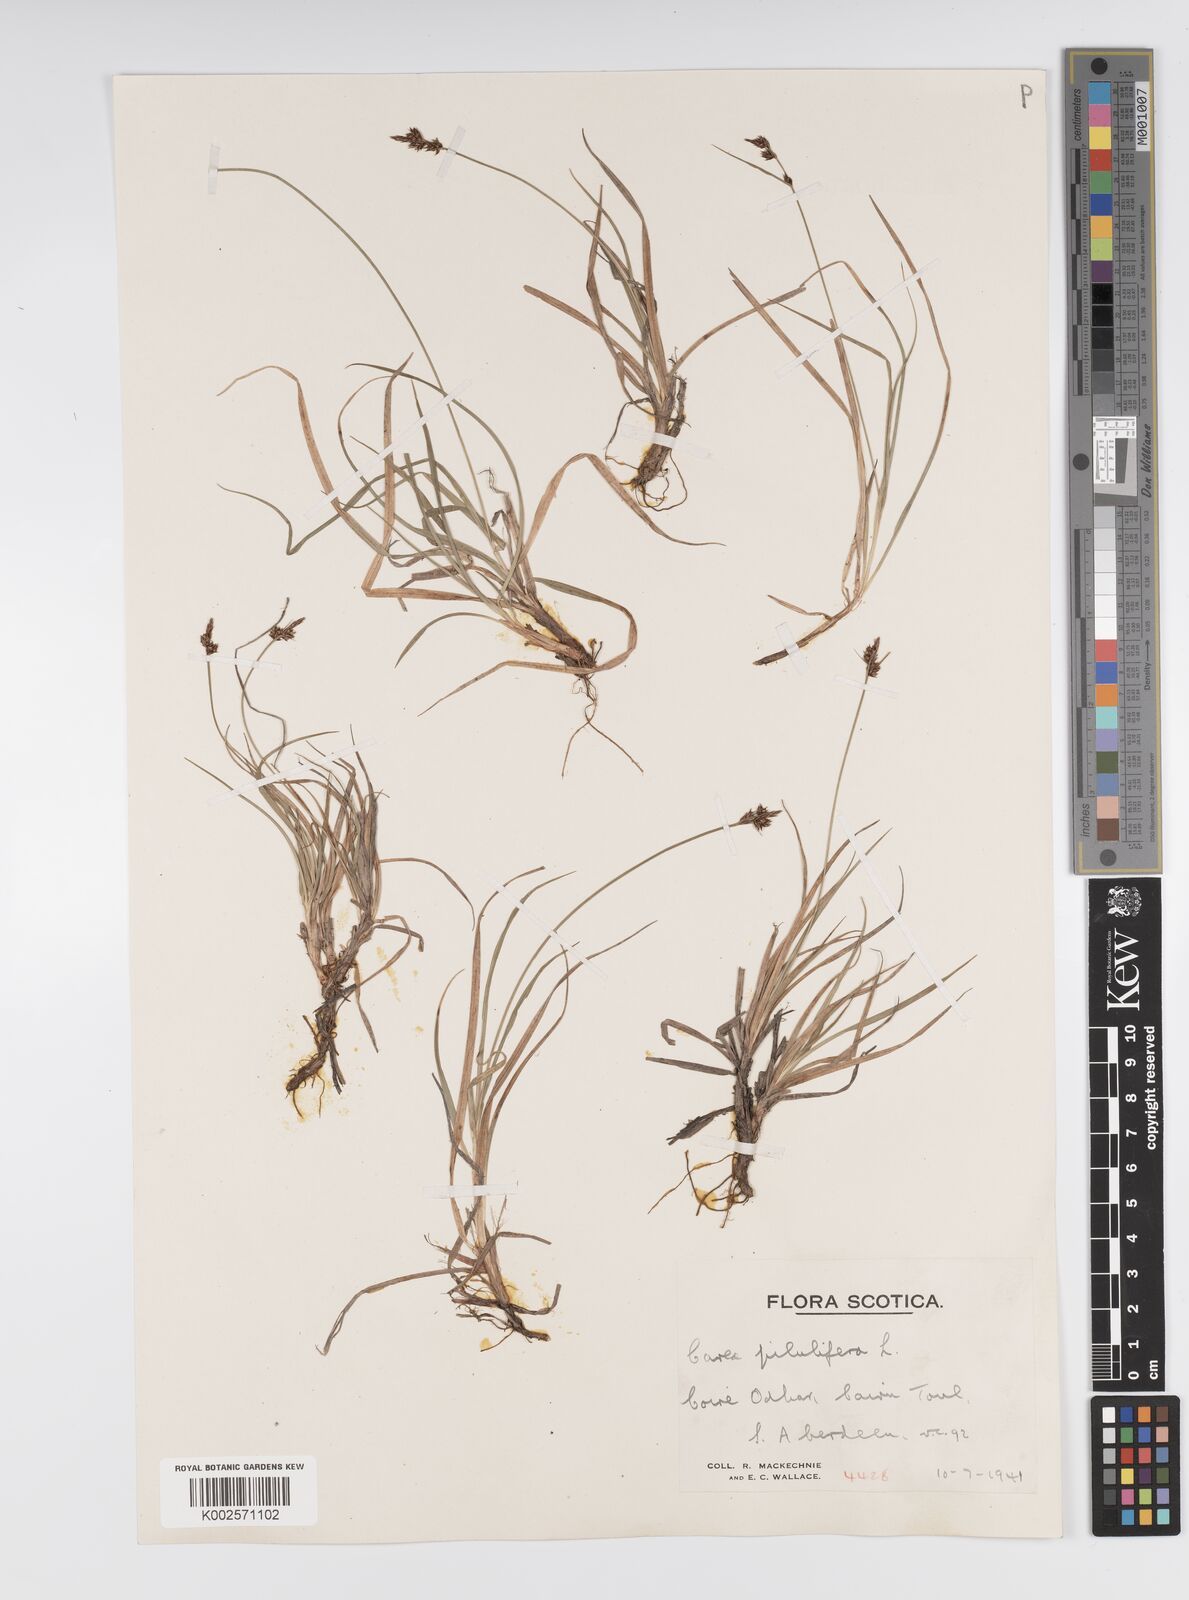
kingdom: Plantae
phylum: Tracheophyta
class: Liliopsida
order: Poales
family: Cyperaceae
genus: Carex
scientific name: Carex pilulifera
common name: Pill sedge
